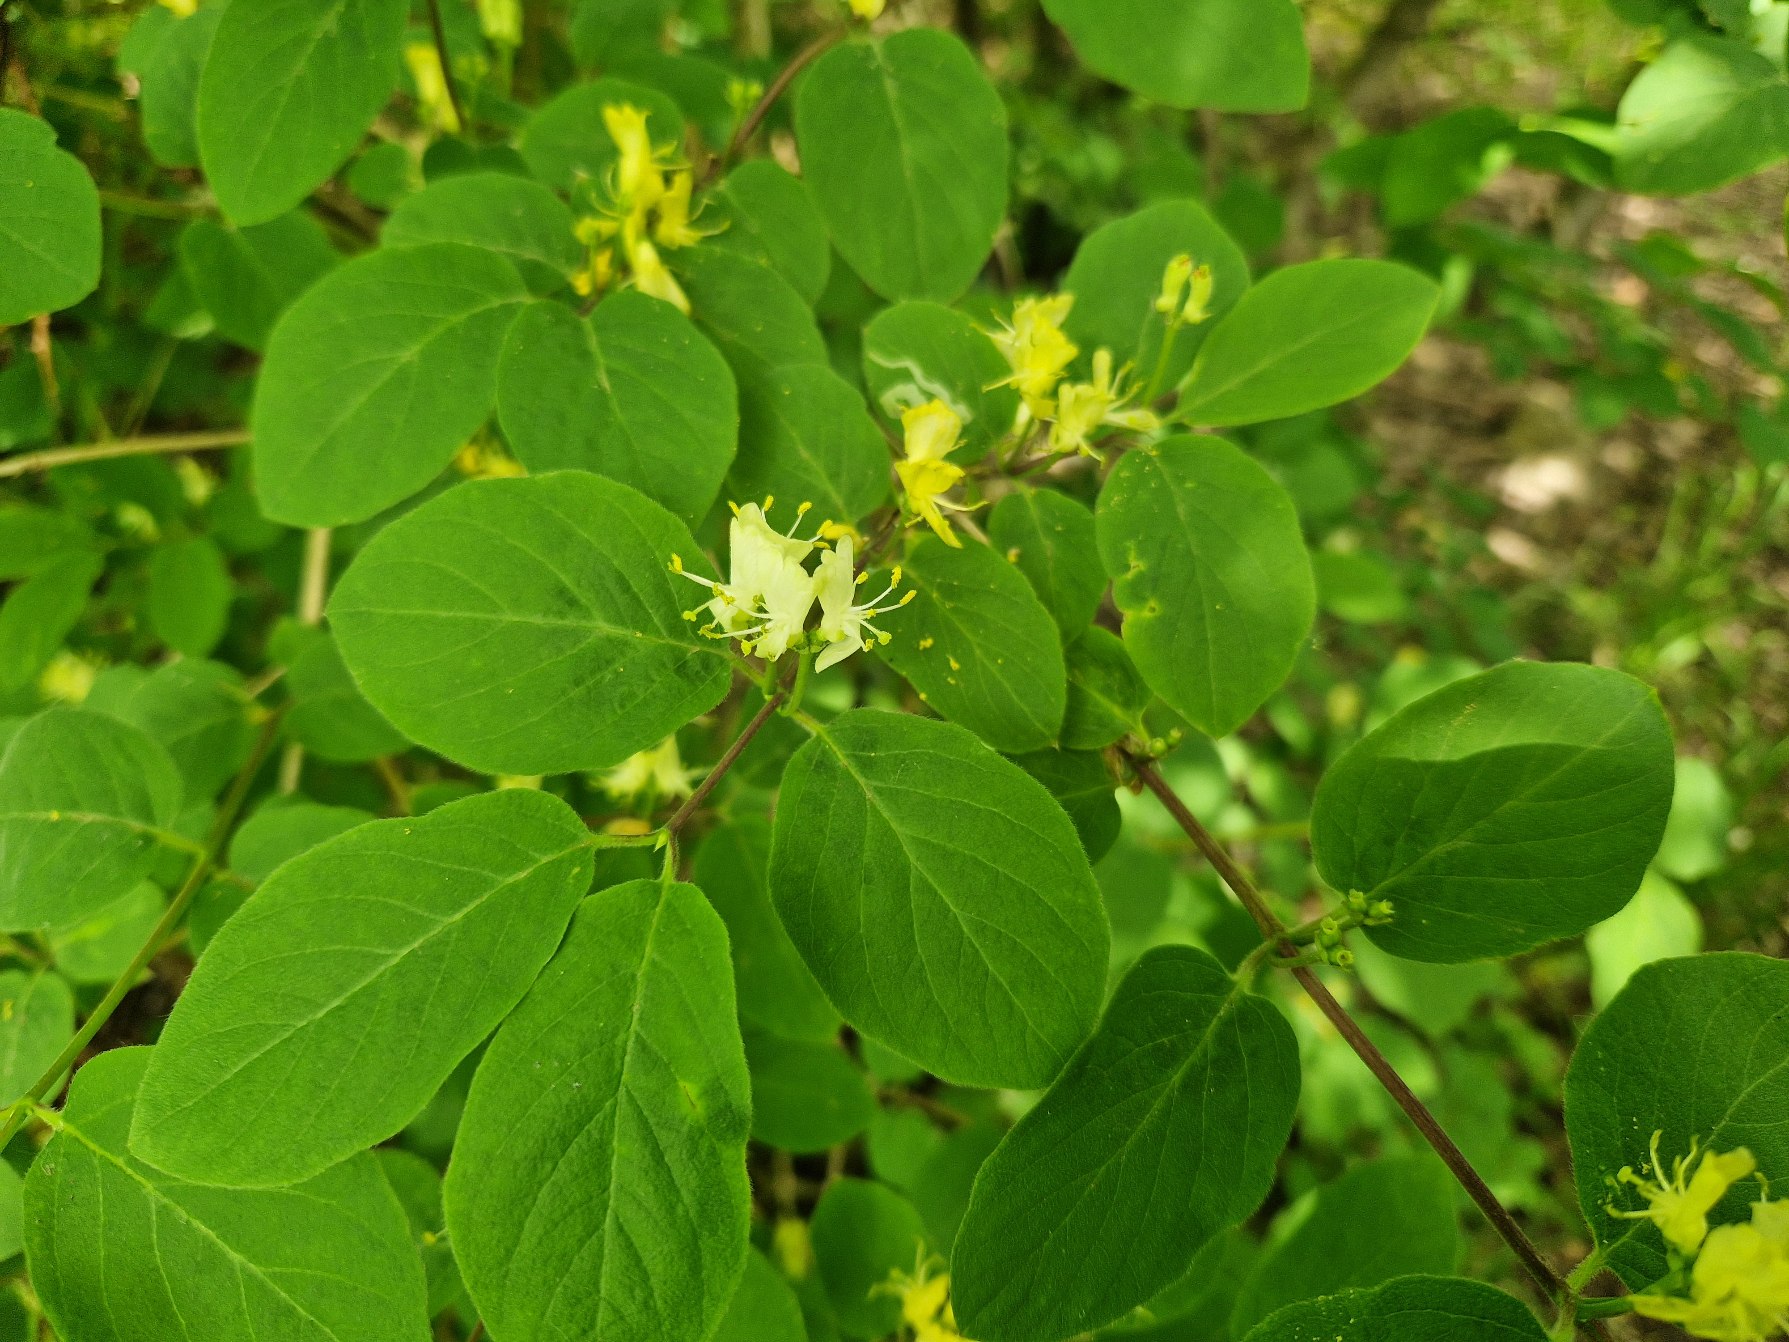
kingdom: Plantae
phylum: Tracheophyta
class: Magnoliopsida
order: Dipsacales
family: Caprifoliaceae
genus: Lonicera
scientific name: Lonicera xylosteum
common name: Dunet gedeblad
